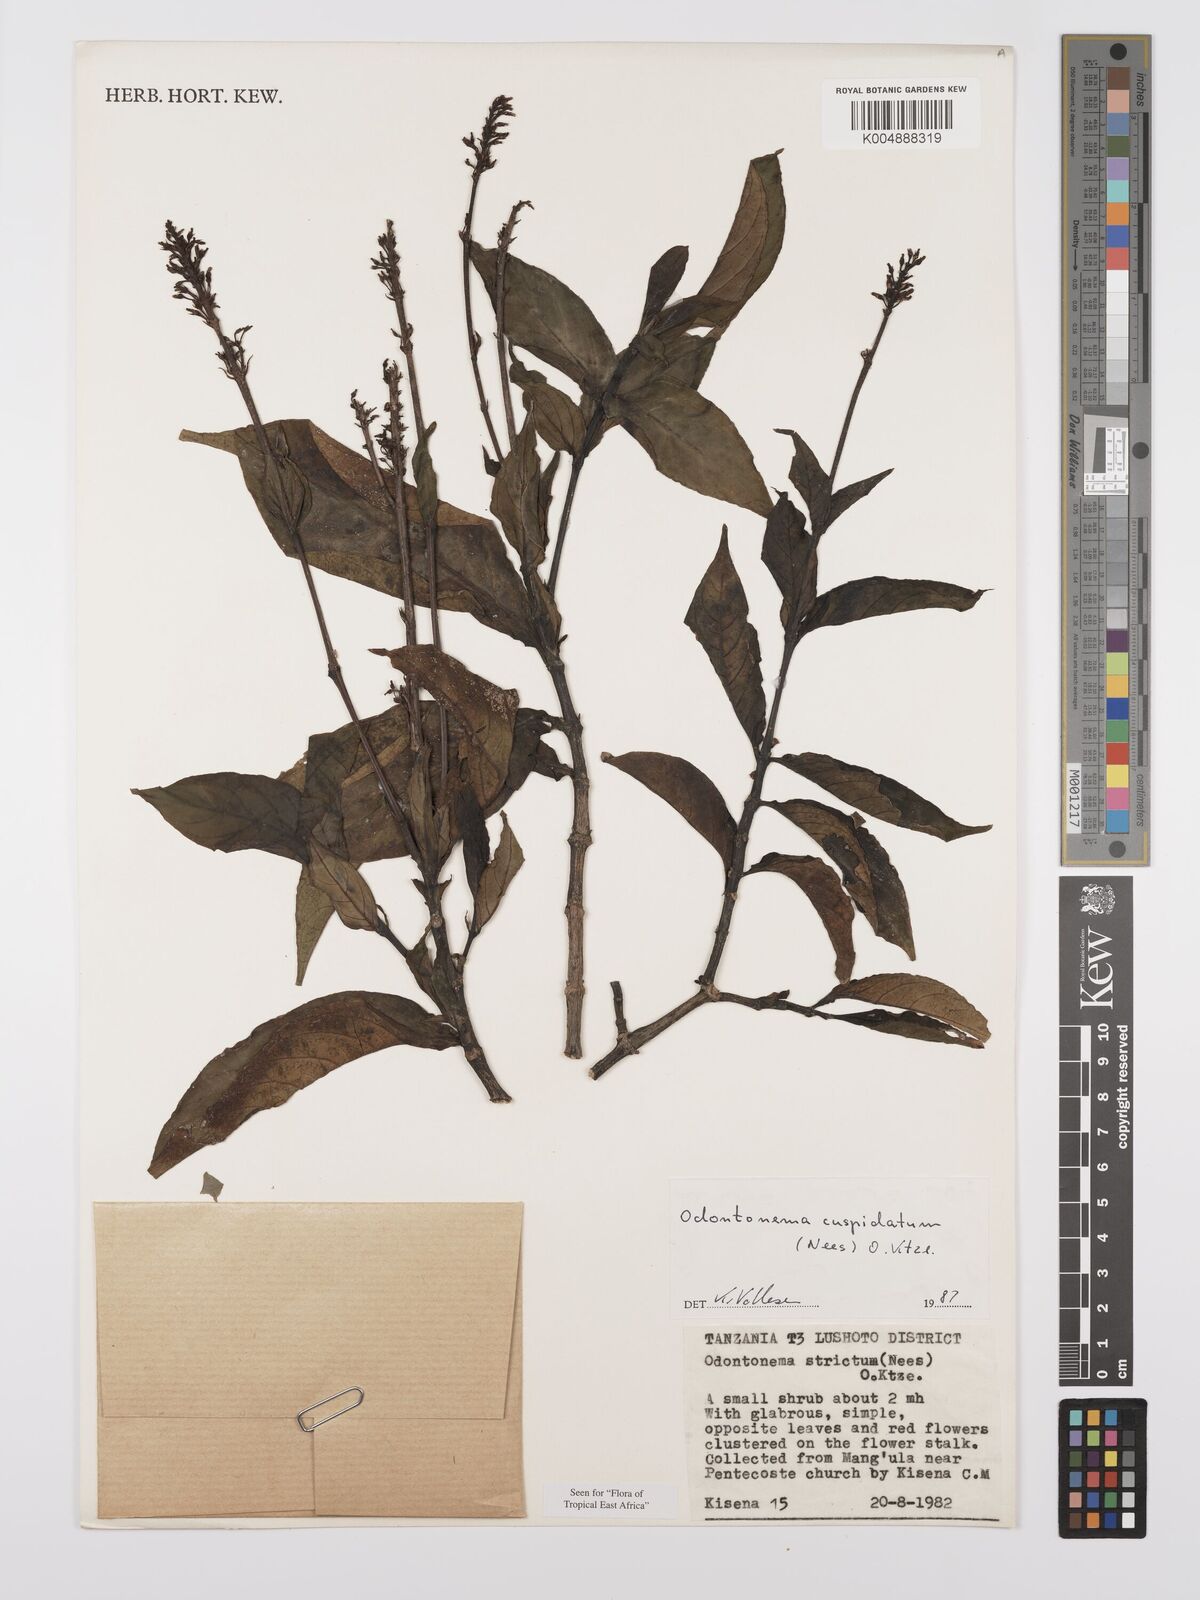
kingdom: Plantae
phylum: Tracheophyta
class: Magnoliopsida
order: Lamiales
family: Acanthaceae
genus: Odontonema
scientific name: Odontonema cuspidatum
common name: Mottled toothedthread
